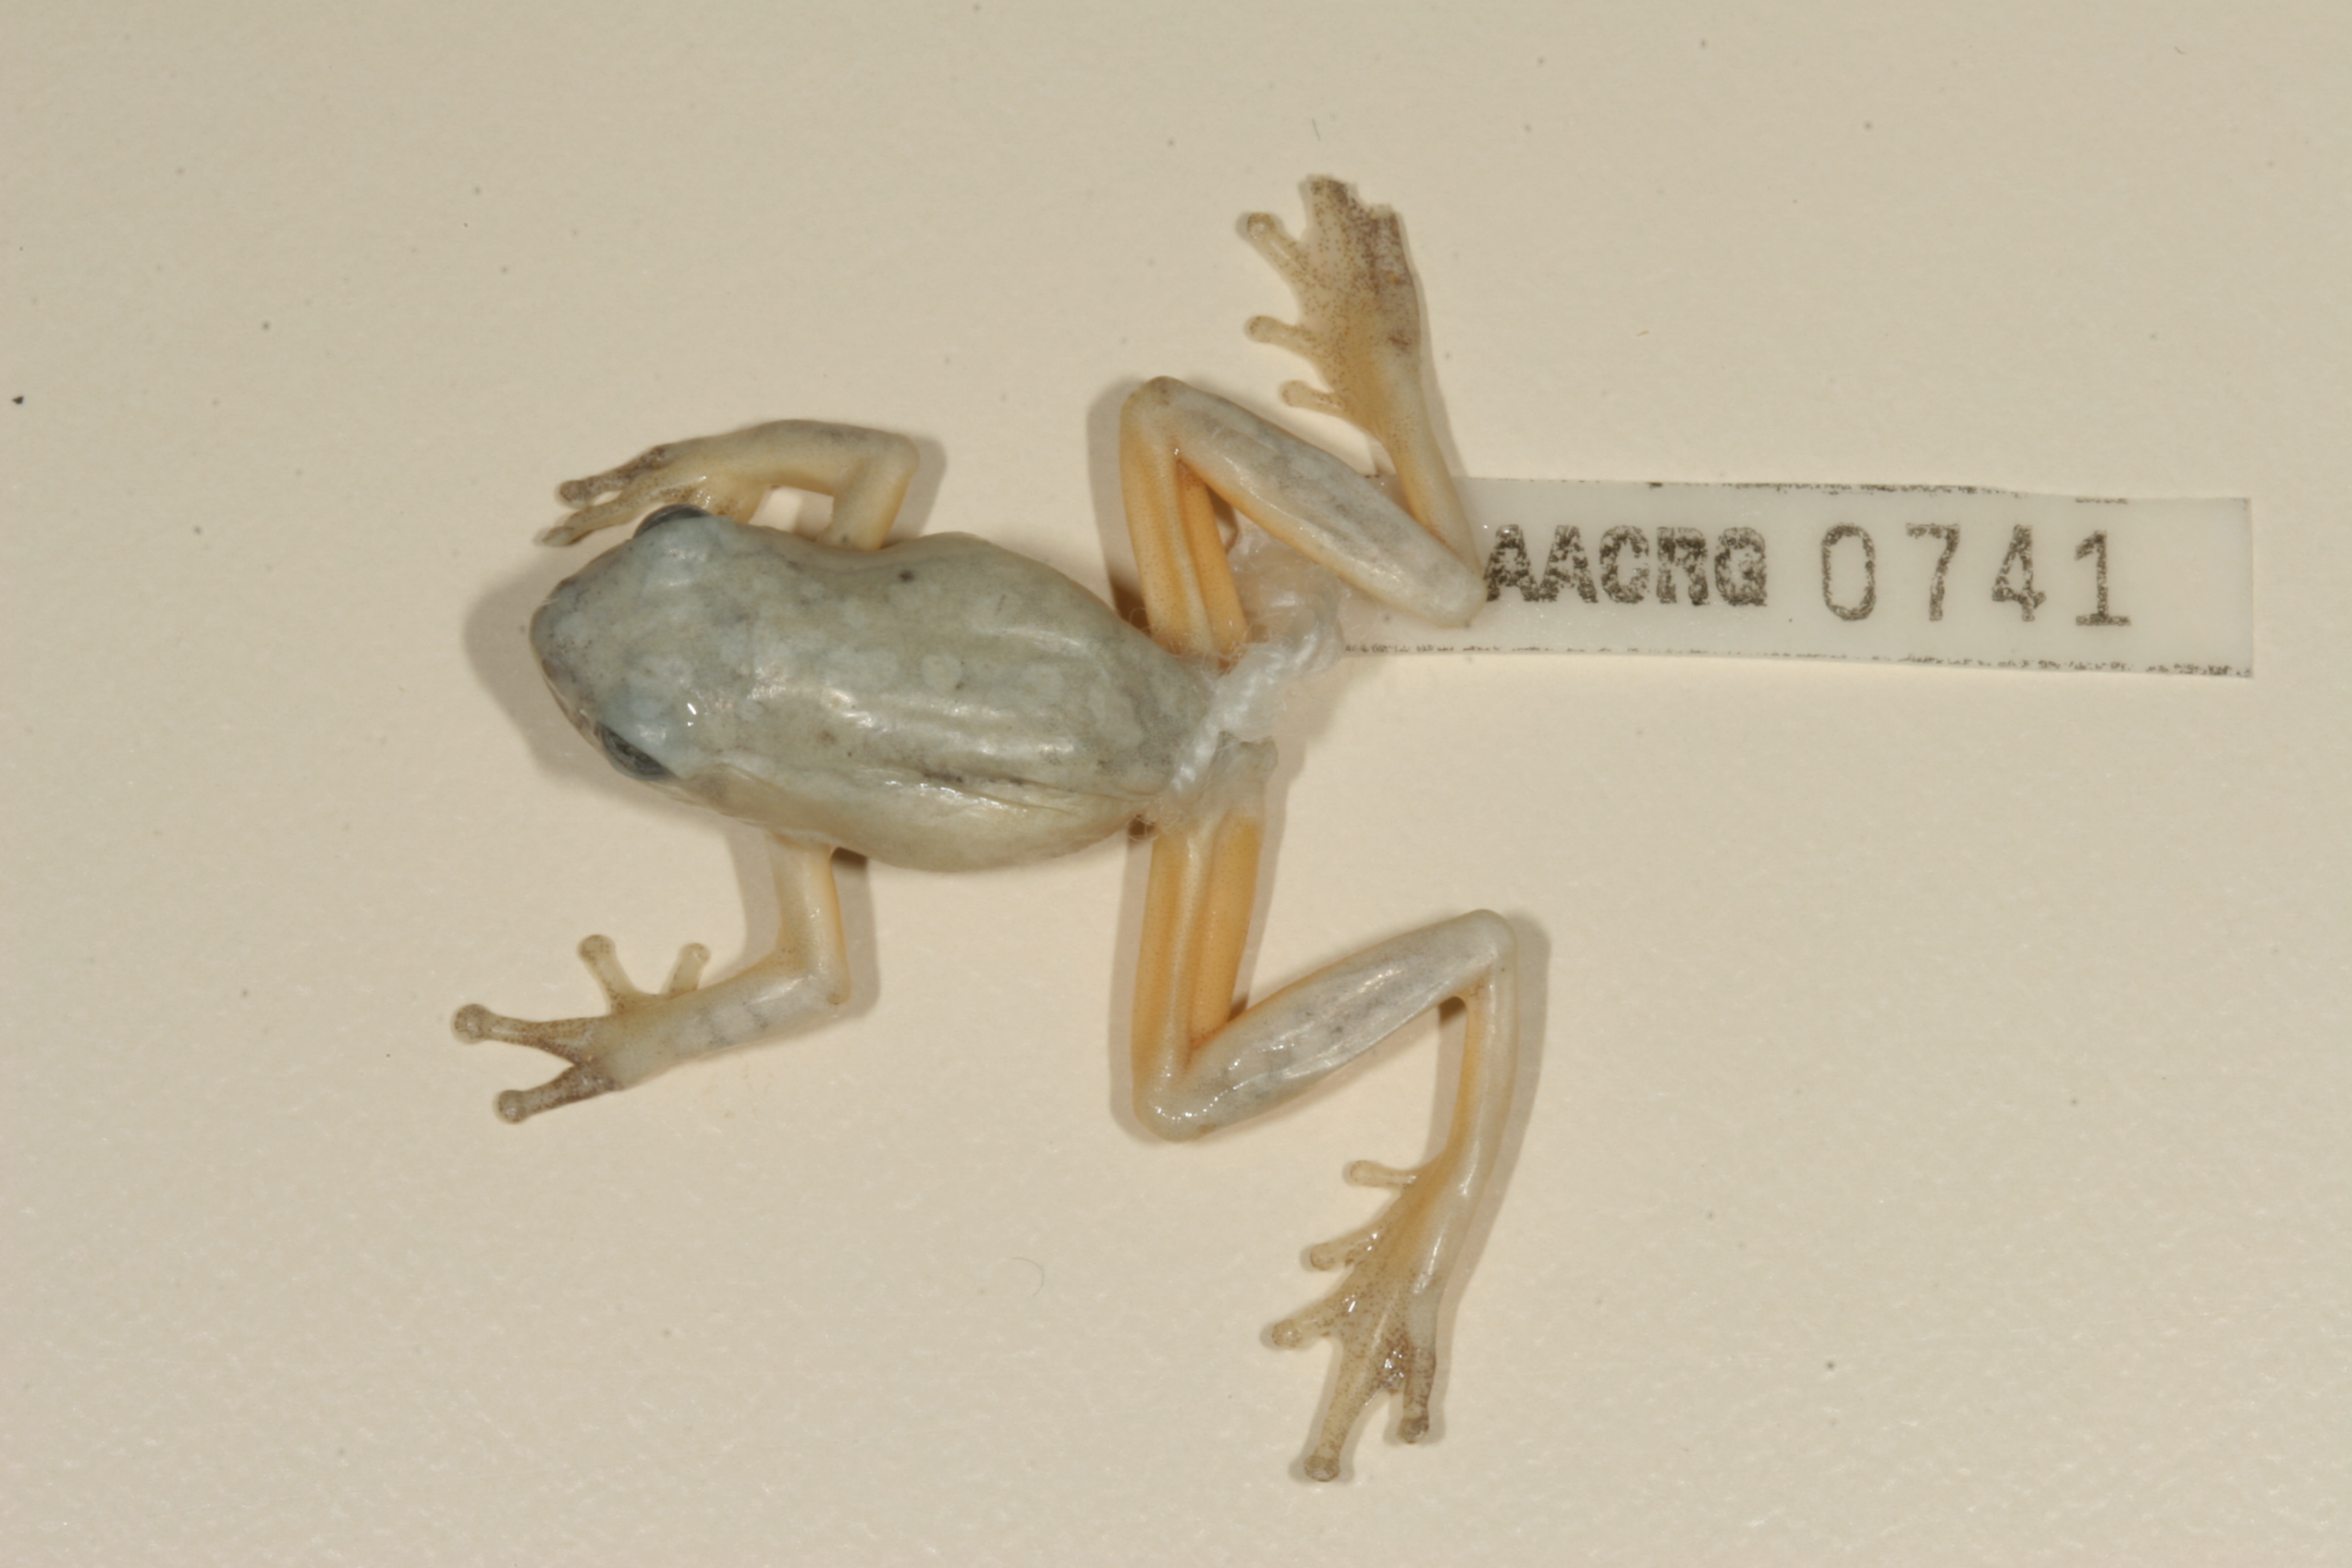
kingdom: Animalia
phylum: Chordata
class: Amphibia
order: Anura
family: Hyperoliidae
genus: Hyperolius
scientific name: Hyperolius marmoratus
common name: Painted reed frog
